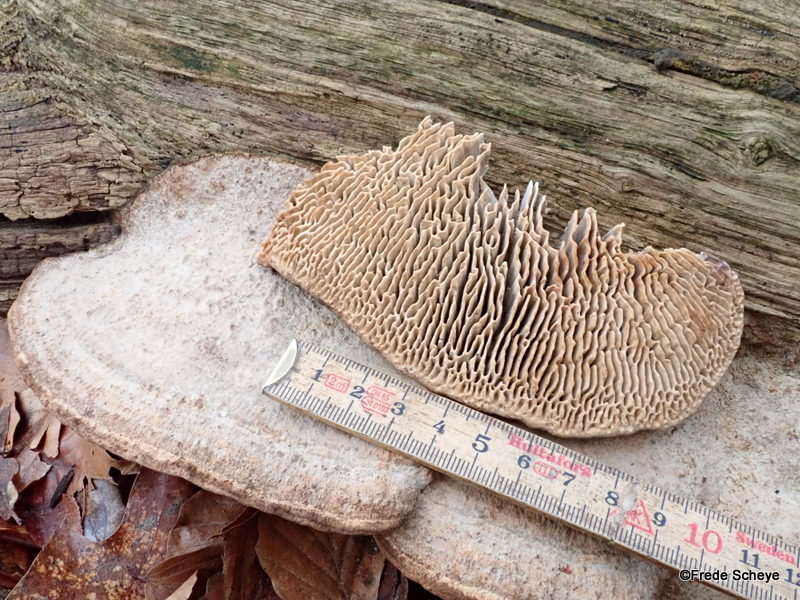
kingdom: Fungi
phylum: Basidiomycota
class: Agaricomycetes
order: Polyporales
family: Fomitopsidaceae
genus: Daedalea
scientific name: Daedalea quercina
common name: ege-labyrintsvamp
